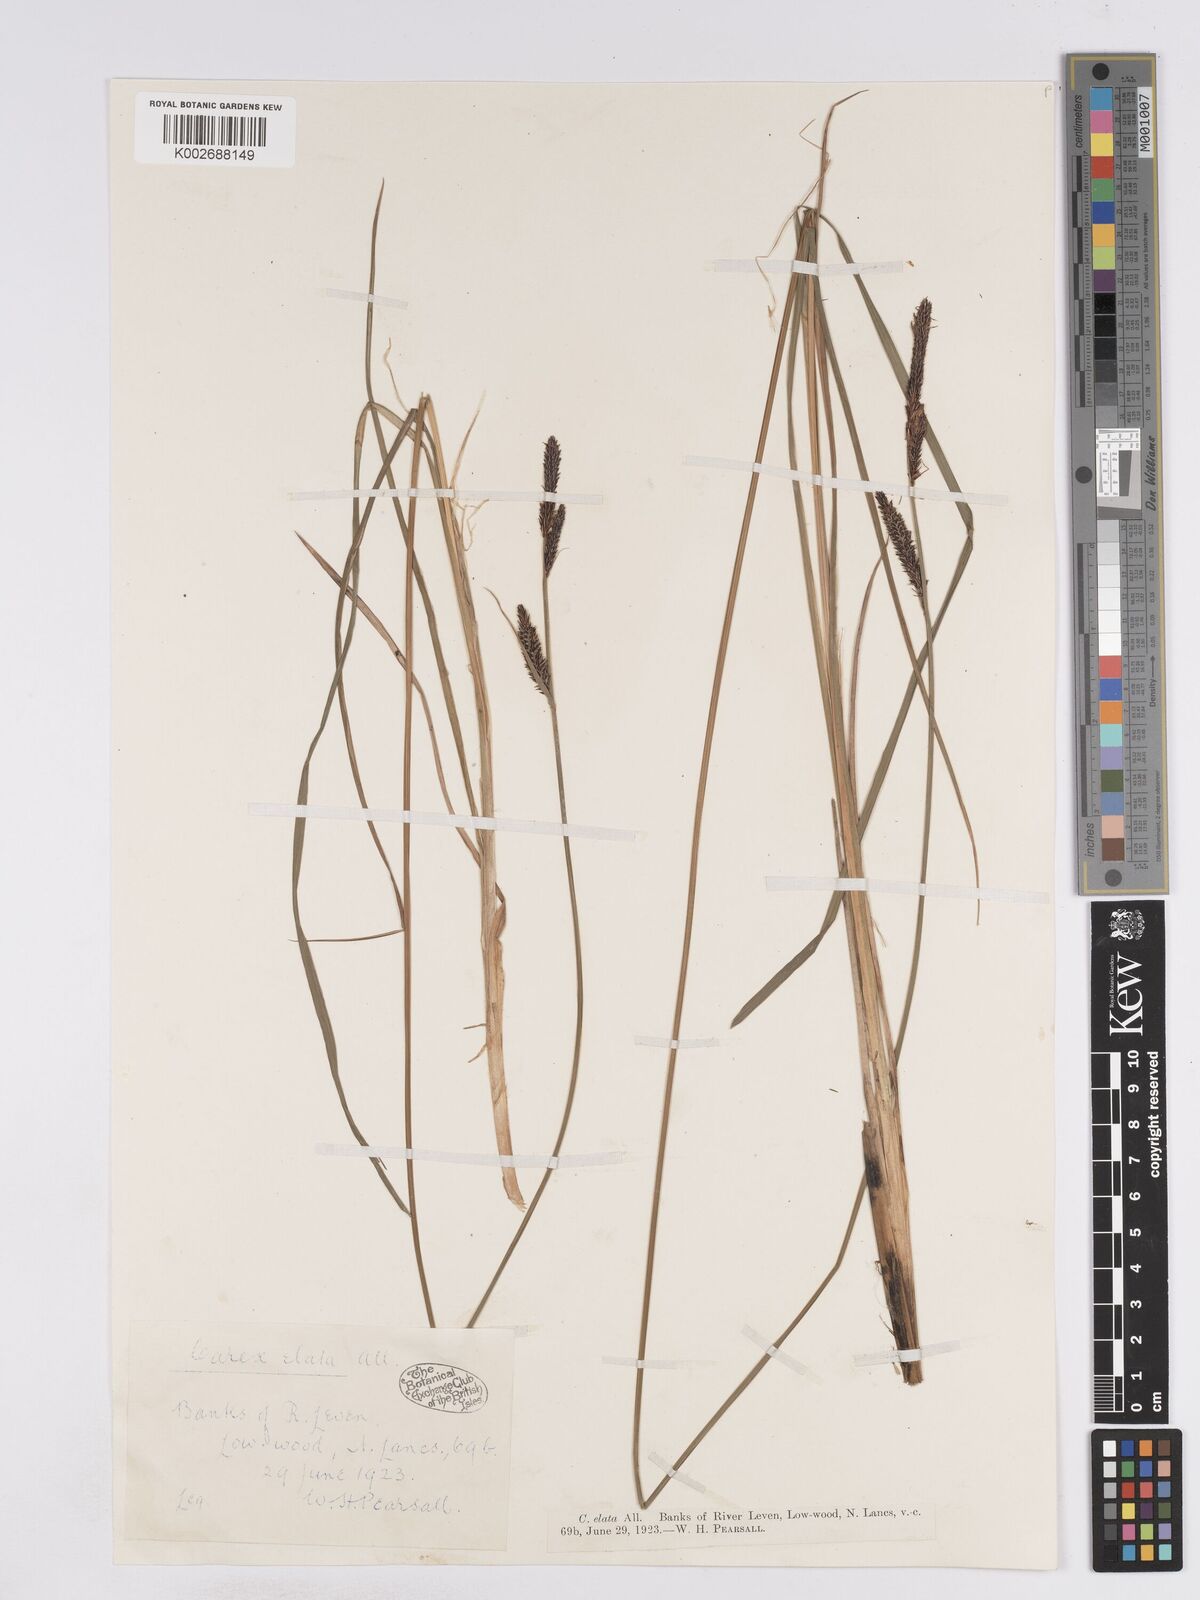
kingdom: Plantae
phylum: Tracheophyta
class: Liliopsida
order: Poales
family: Cyperaceae
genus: Carex
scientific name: Carex elata
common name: Tufted sedge
